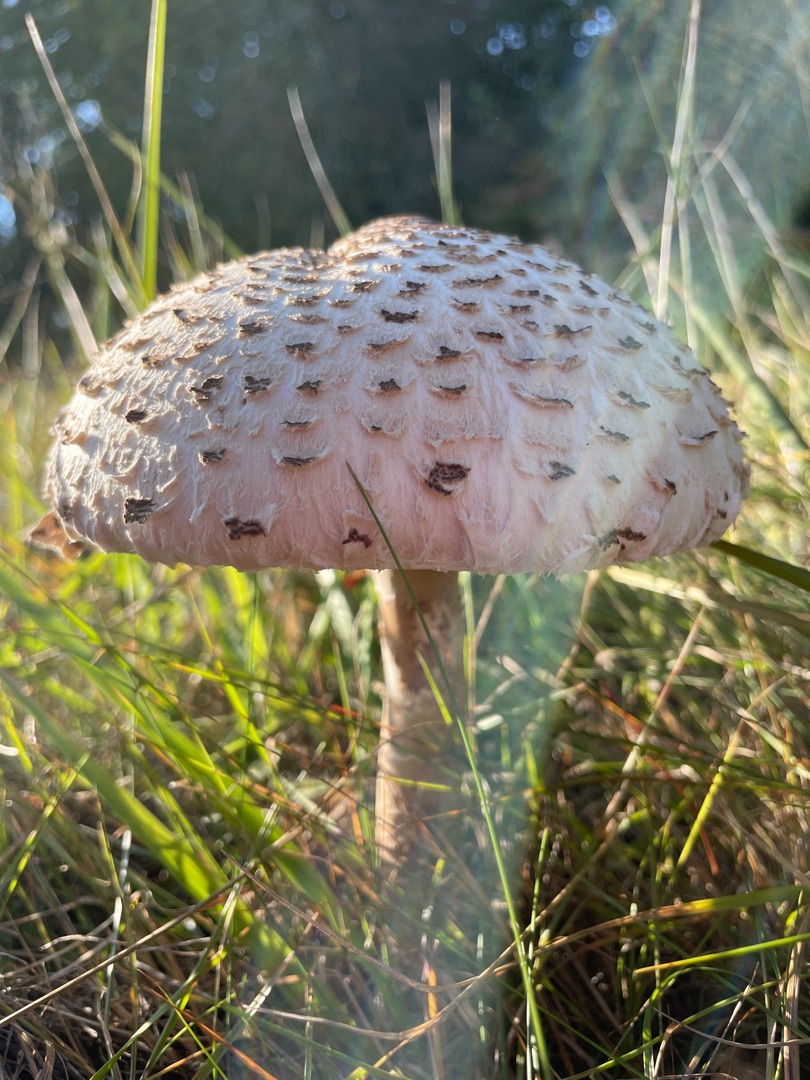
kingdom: Fungi
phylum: Basidiomycota
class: Agaricomycetes
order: Agaricales
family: Agaricaceae
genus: Macrolepiota
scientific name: Macrolepiota procera
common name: Stor kæmpeparasolhat
